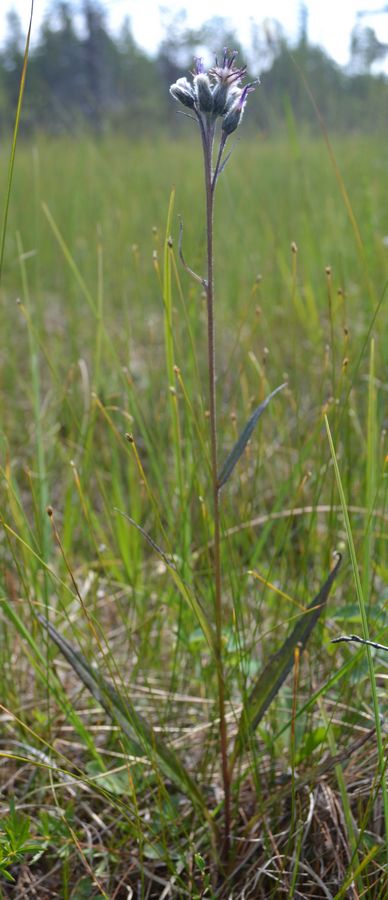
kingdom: Plantae
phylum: Tracheophyta
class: Magnoliopsida
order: Asterales
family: Asteraceae
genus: Saussurea
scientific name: Saussurea alpina
